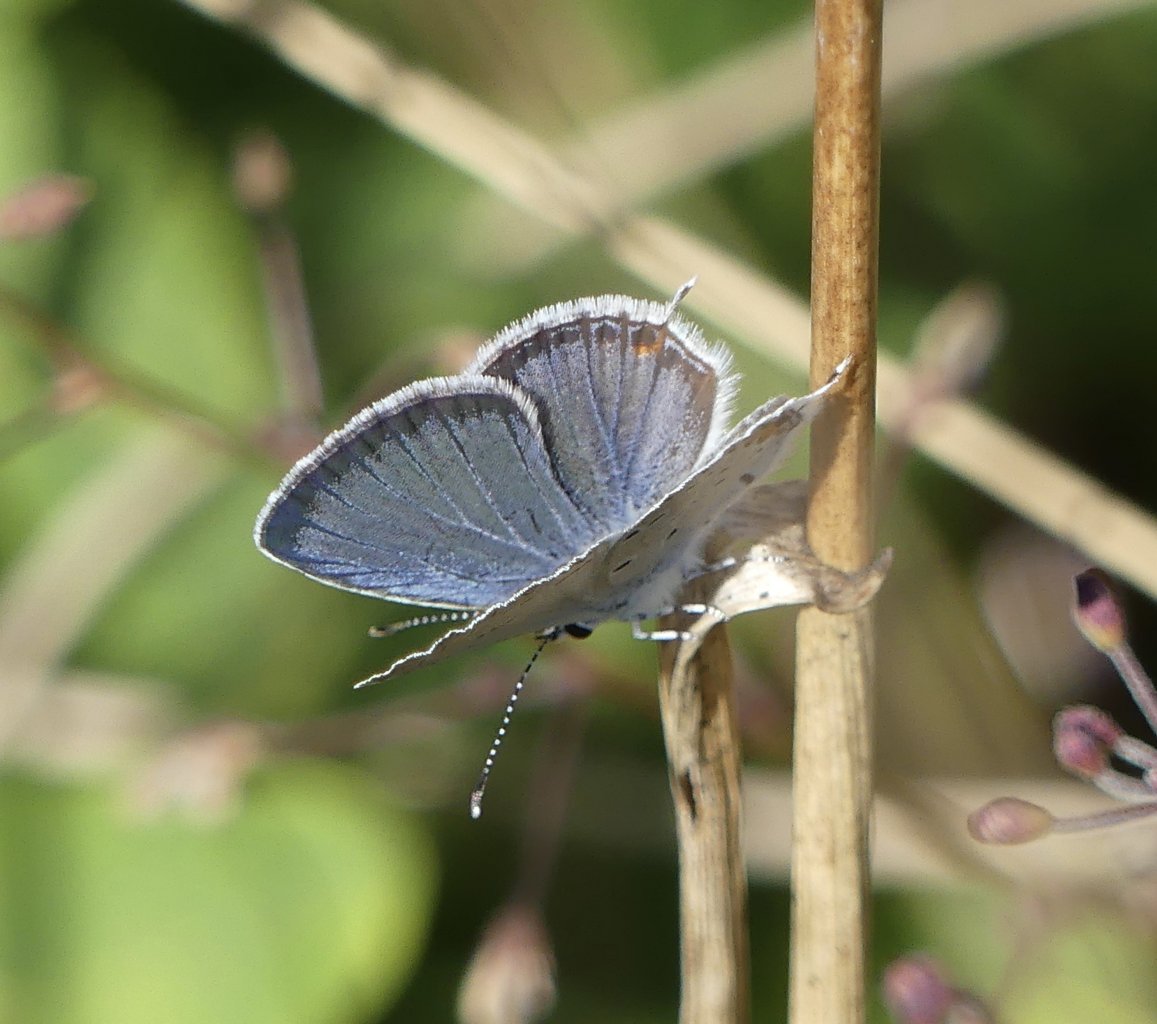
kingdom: Animalia
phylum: Arthropoda
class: Insecta
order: Lepidoptera
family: Lycaenidae
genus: Elkalyce
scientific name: Elkalyce comyntas
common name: Eastern Tailed-Blue
